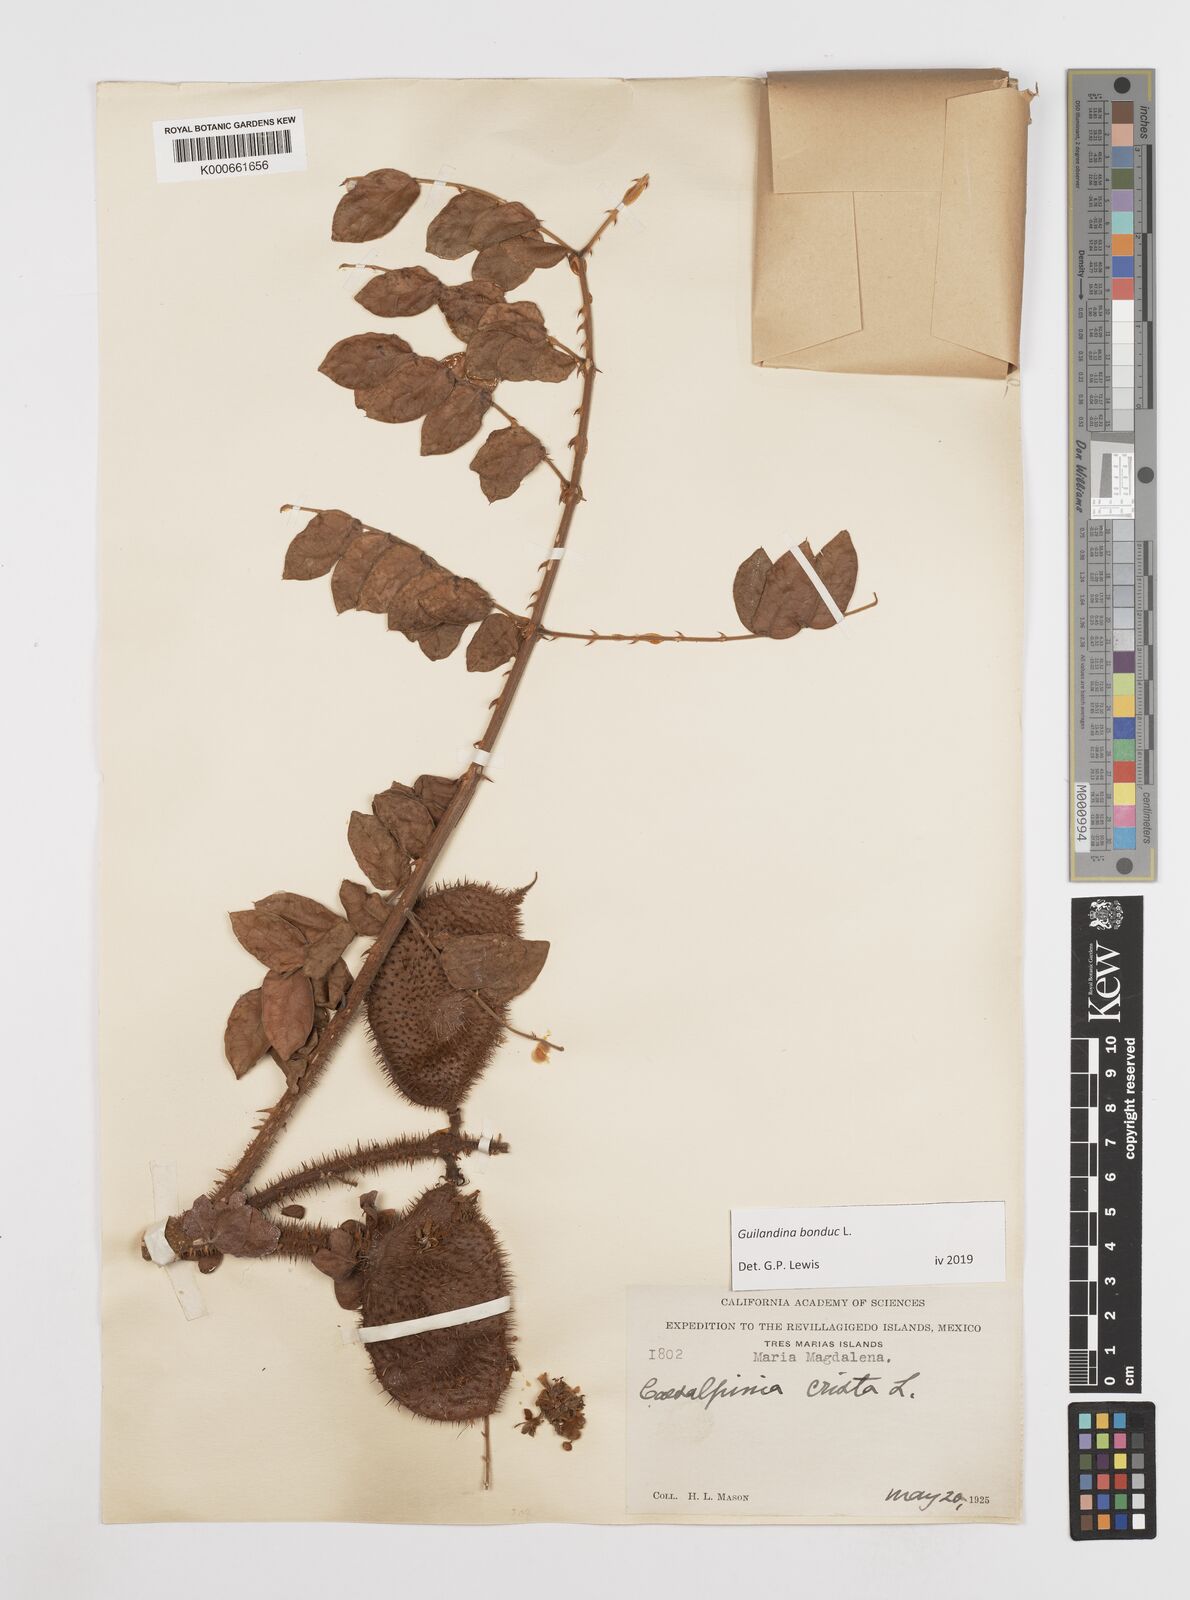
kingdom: Plantae
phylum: Tracheophyta
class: Magnoliopsida
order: Asterales
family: Goodeniaceae
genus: Scaevola
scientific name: Scaevola taccada
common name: Sea lettucetree
